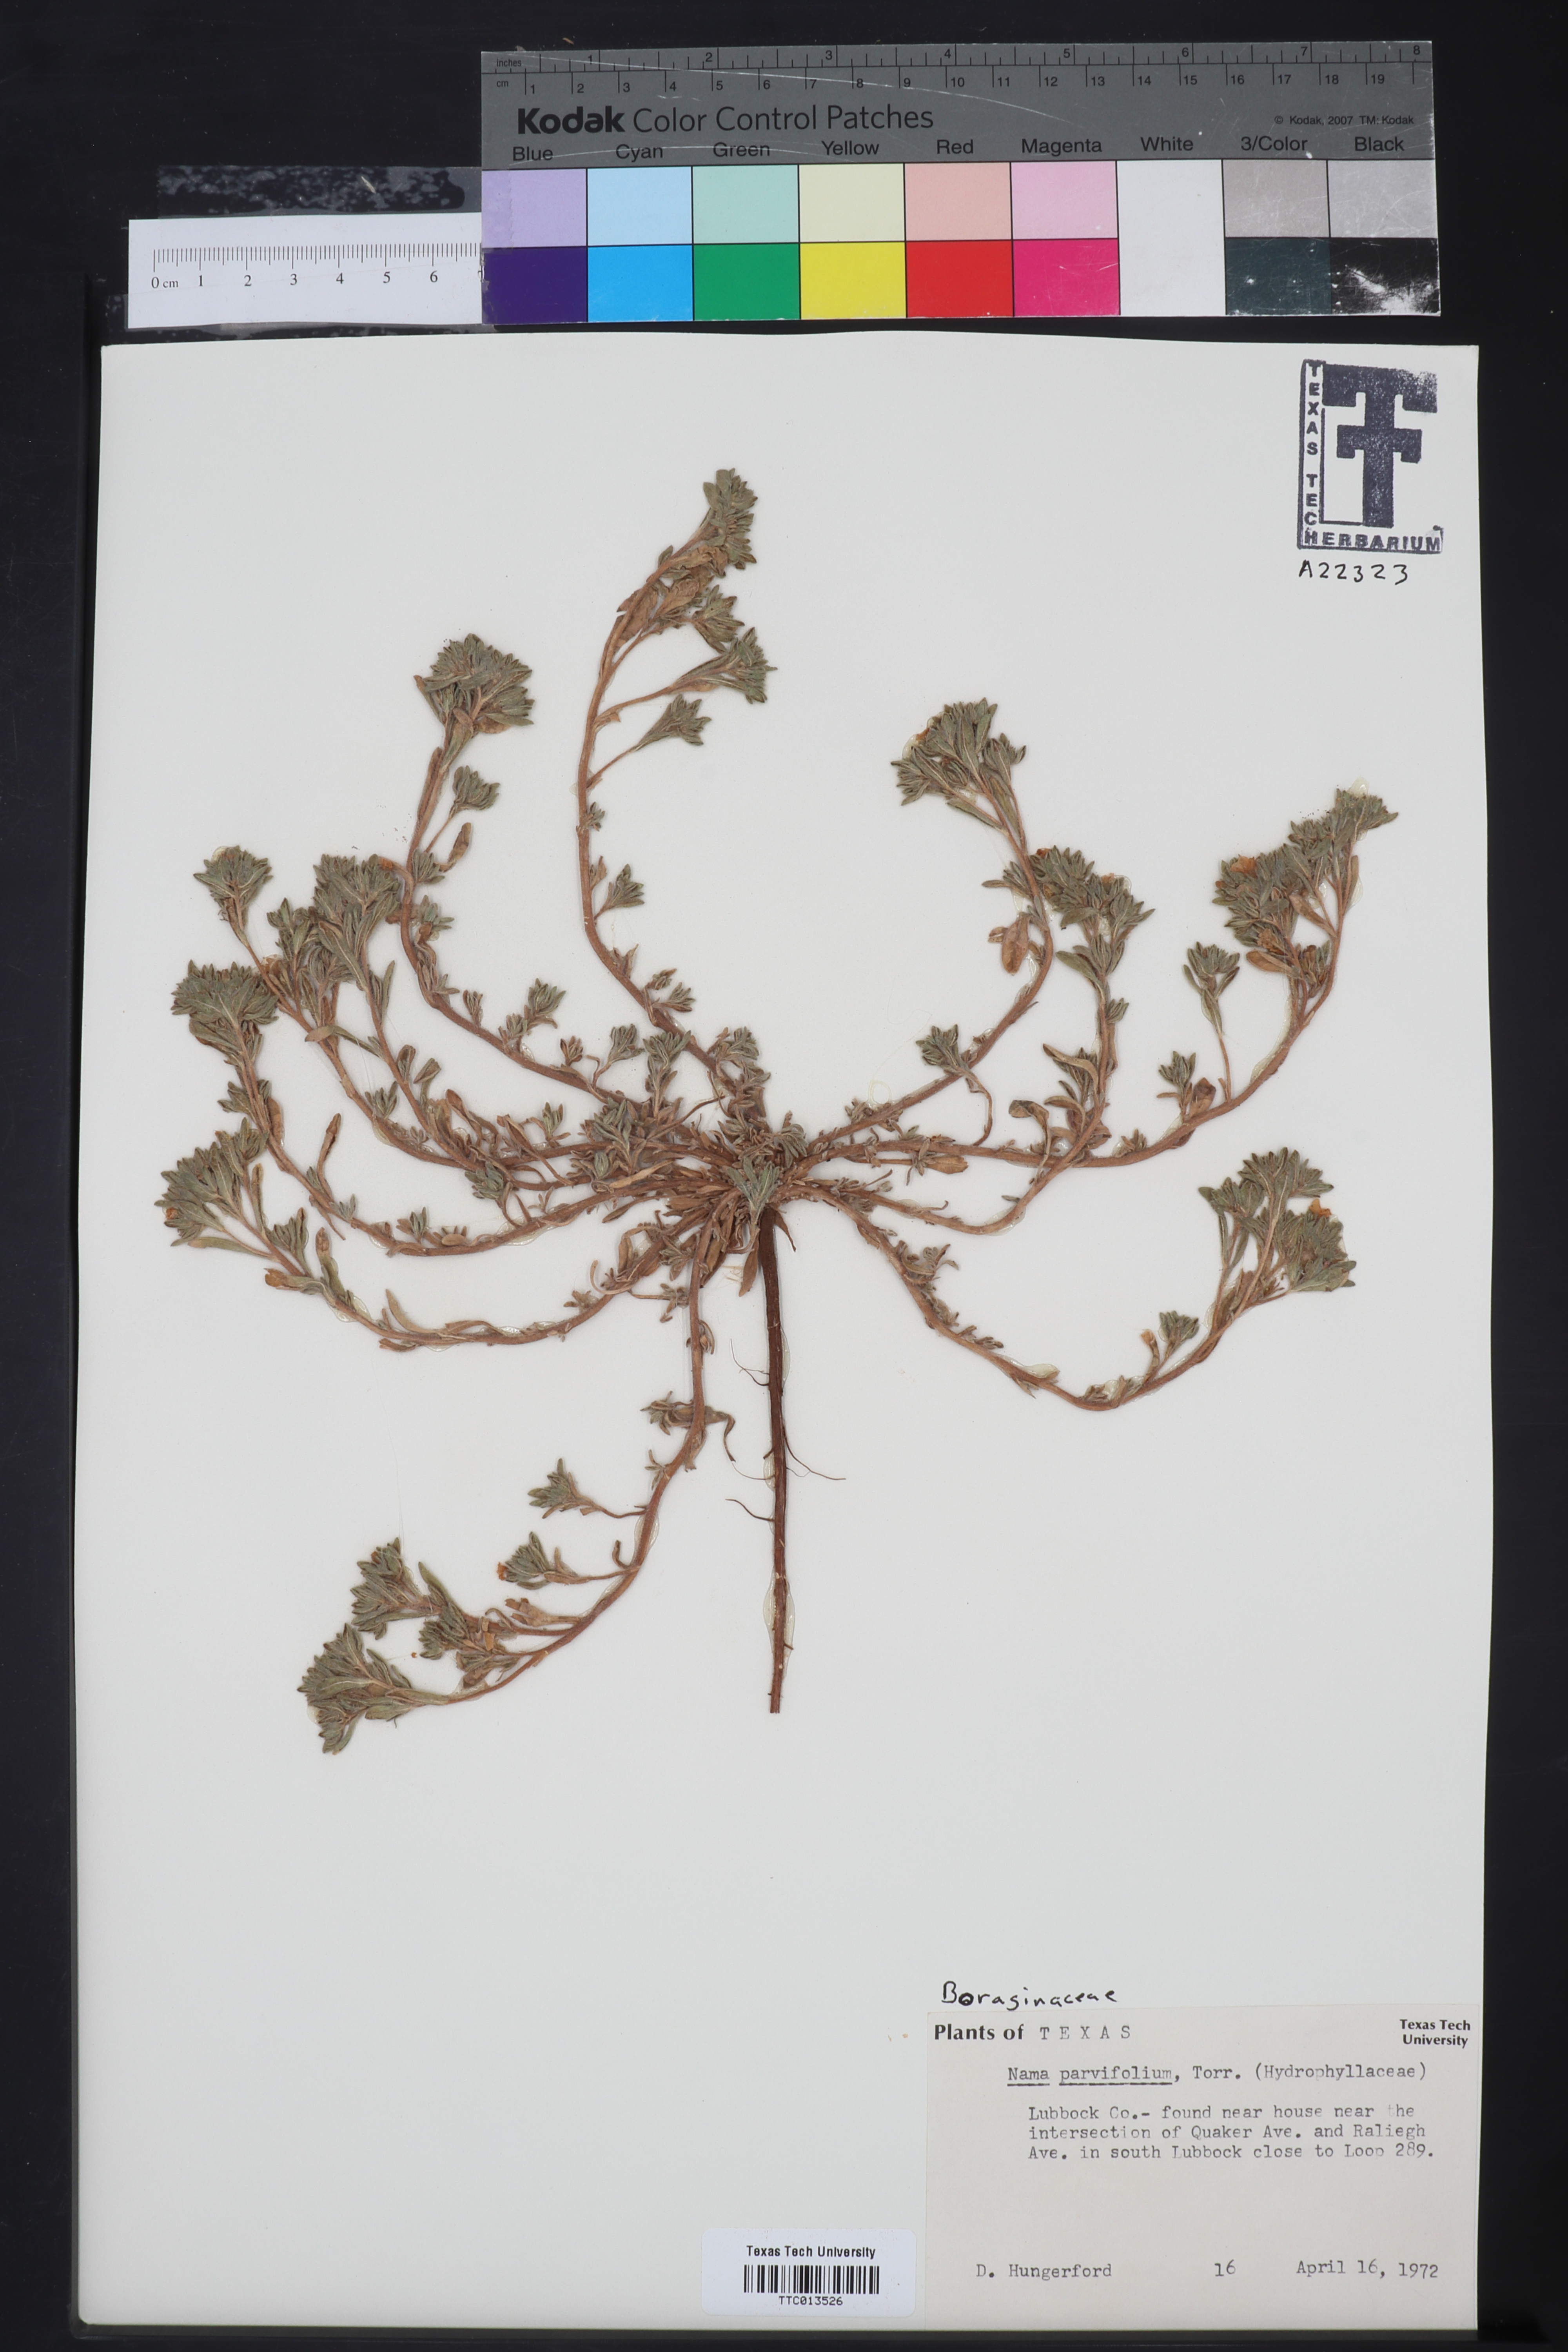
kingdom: Plantae
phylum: Tracheophyta
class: Magnoliopsida
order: Boraginales
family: Namaceae
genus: Nama
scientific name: Nama parvifolia
